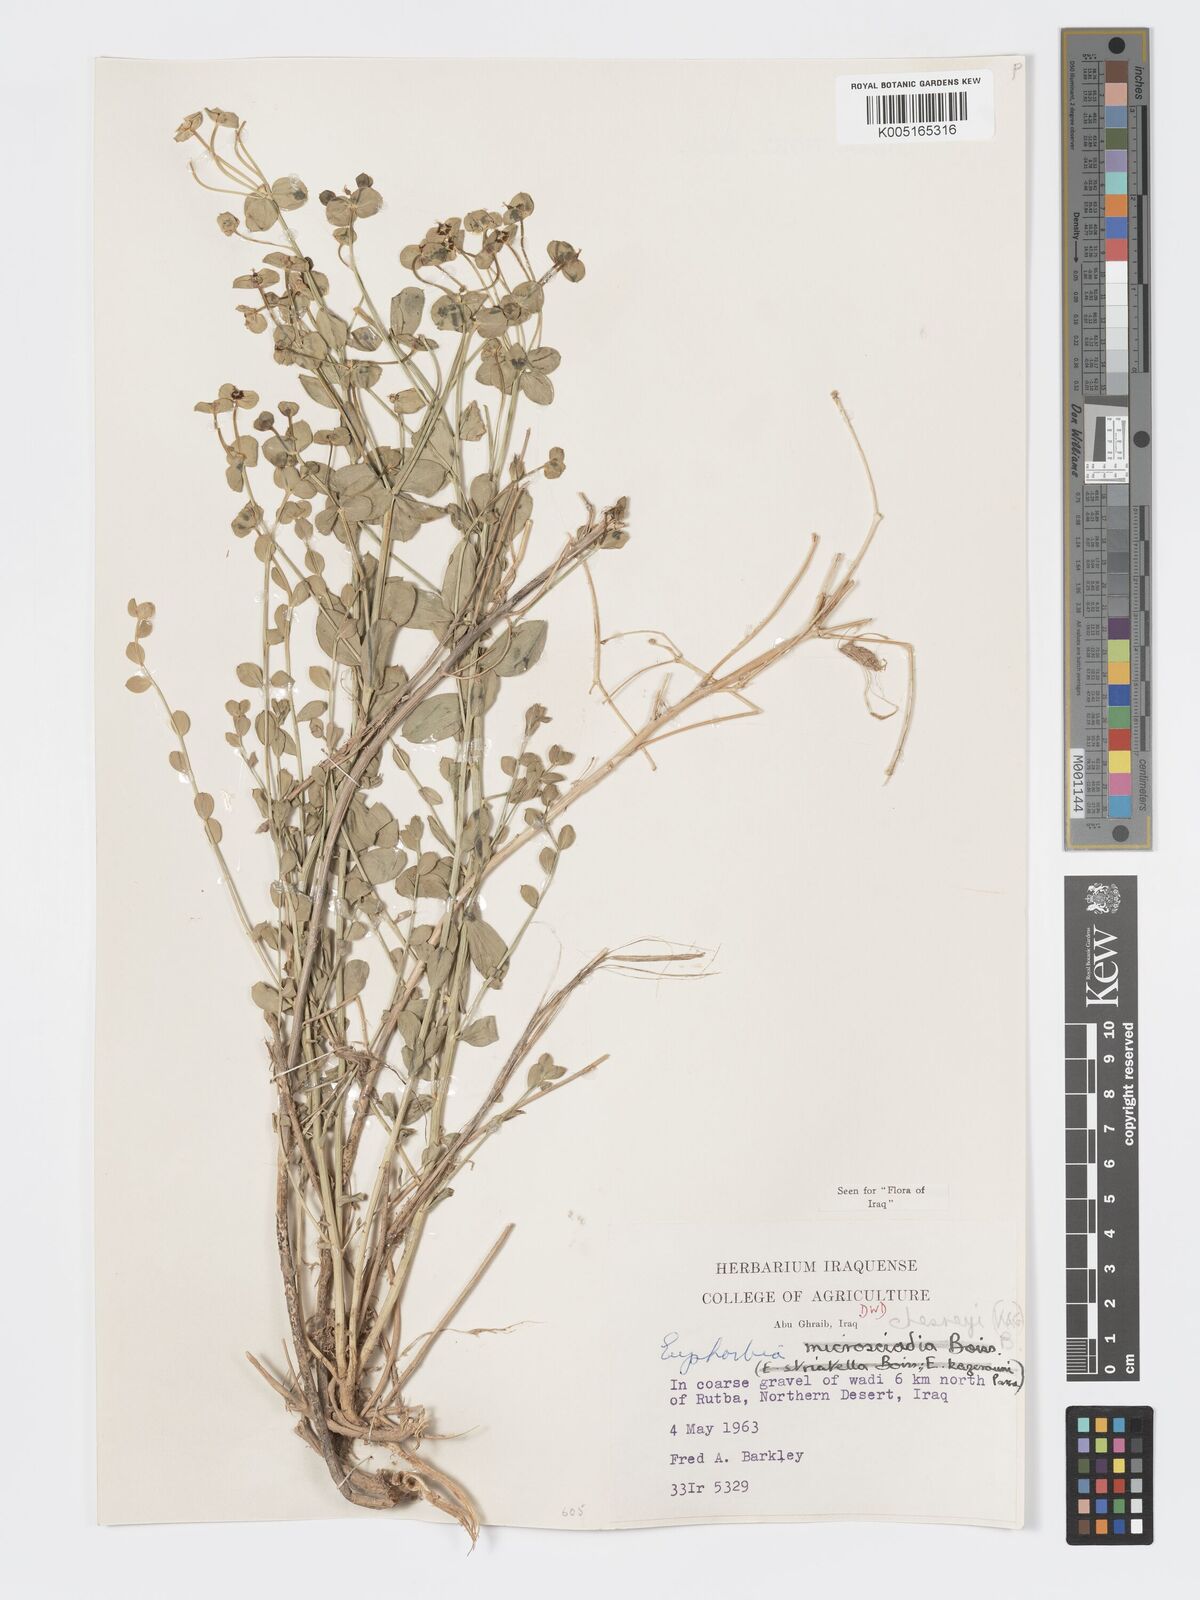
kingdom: Plantae
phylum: Tracheophyta
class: Magnoliopsida
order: Malpighiales
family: Euphorbiaceae
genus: Euphorbia
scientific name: Euphorbia cuspidata
